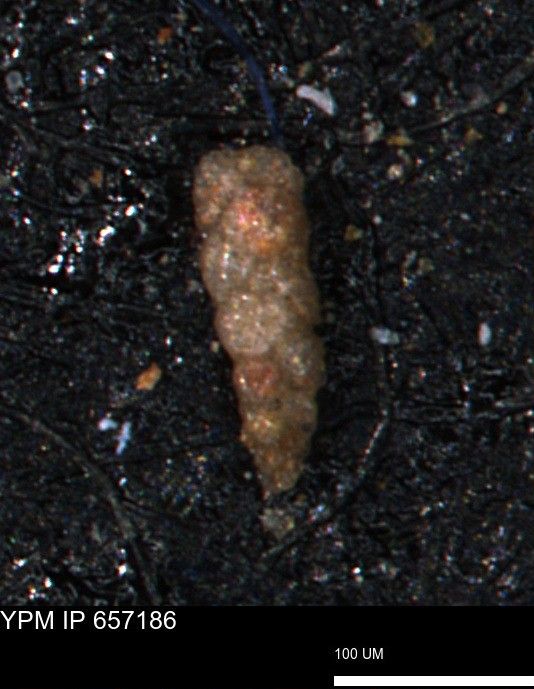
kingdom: Chromista
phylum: Foraminifera
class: Globothalamea
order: Lituolida
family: Verneuilinidae
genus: Verneuilinoides
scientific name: Verneuilinoides kansasensis
